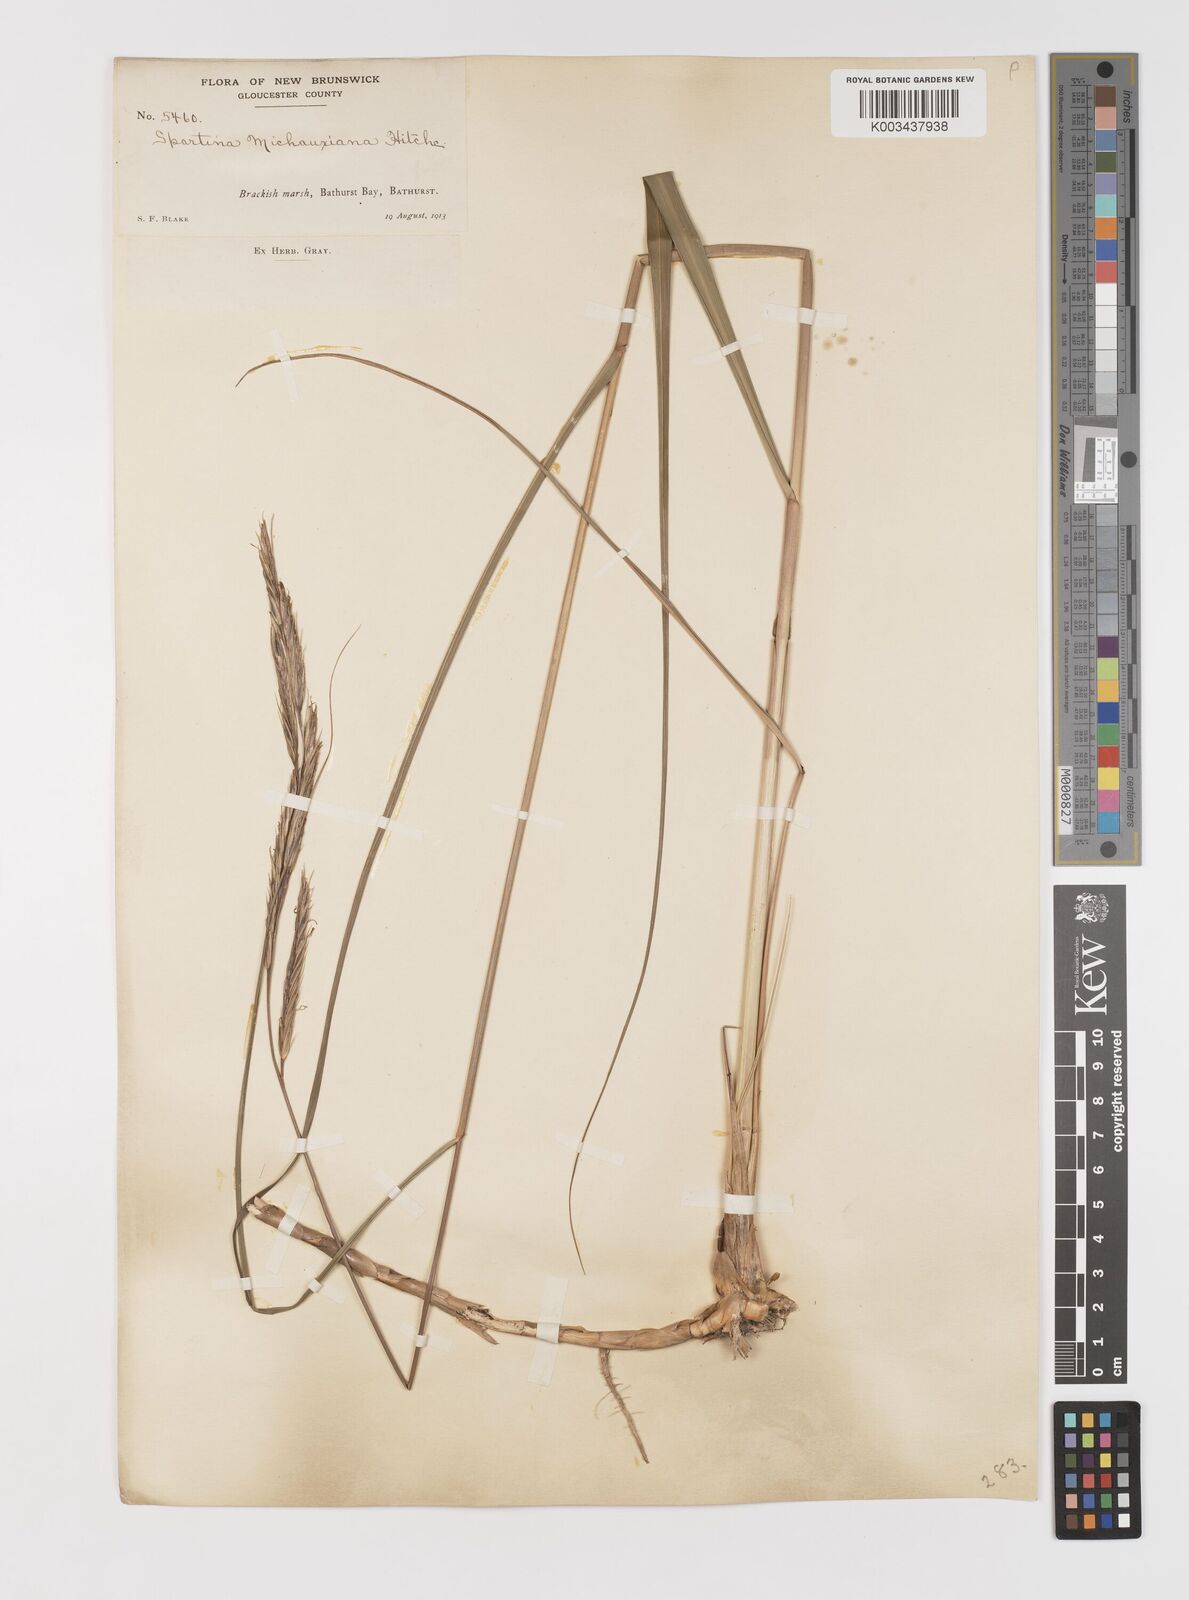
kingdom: Plantae
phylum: Tracheophyta
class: Liliopsida
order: Poales
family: Poaceae
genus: Sporobolus
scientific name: Sporobolus michauxianus
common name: Freshwater cordgrass
